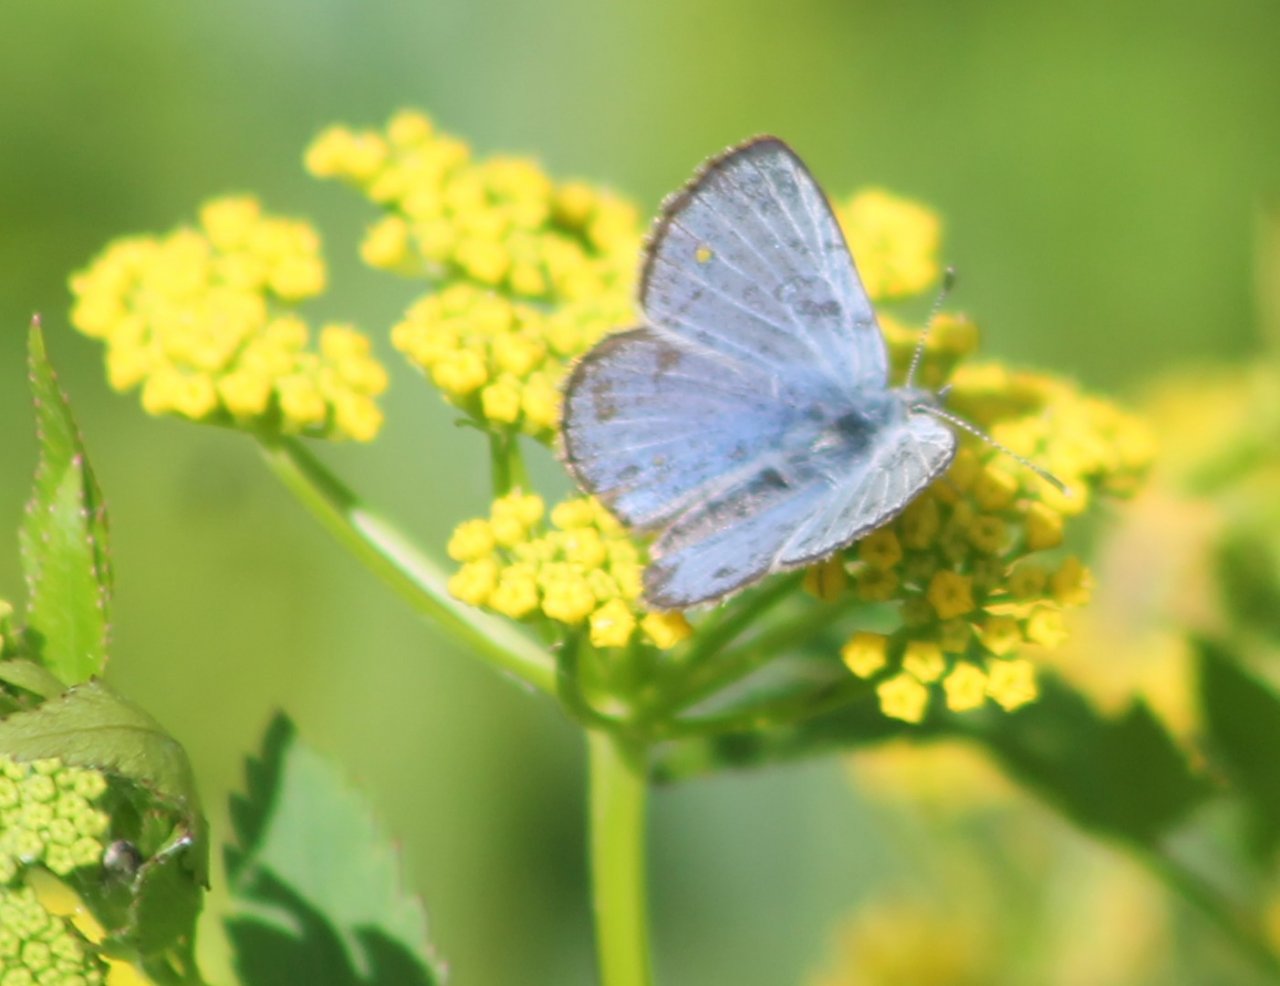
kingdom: Animalia
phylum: Arthropoda
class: Insecta
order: Lepidoptera
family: Lycaenidae
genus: Glaucopsyche
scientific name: Glaucopsyche lygdamus
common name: Silvery Blue
